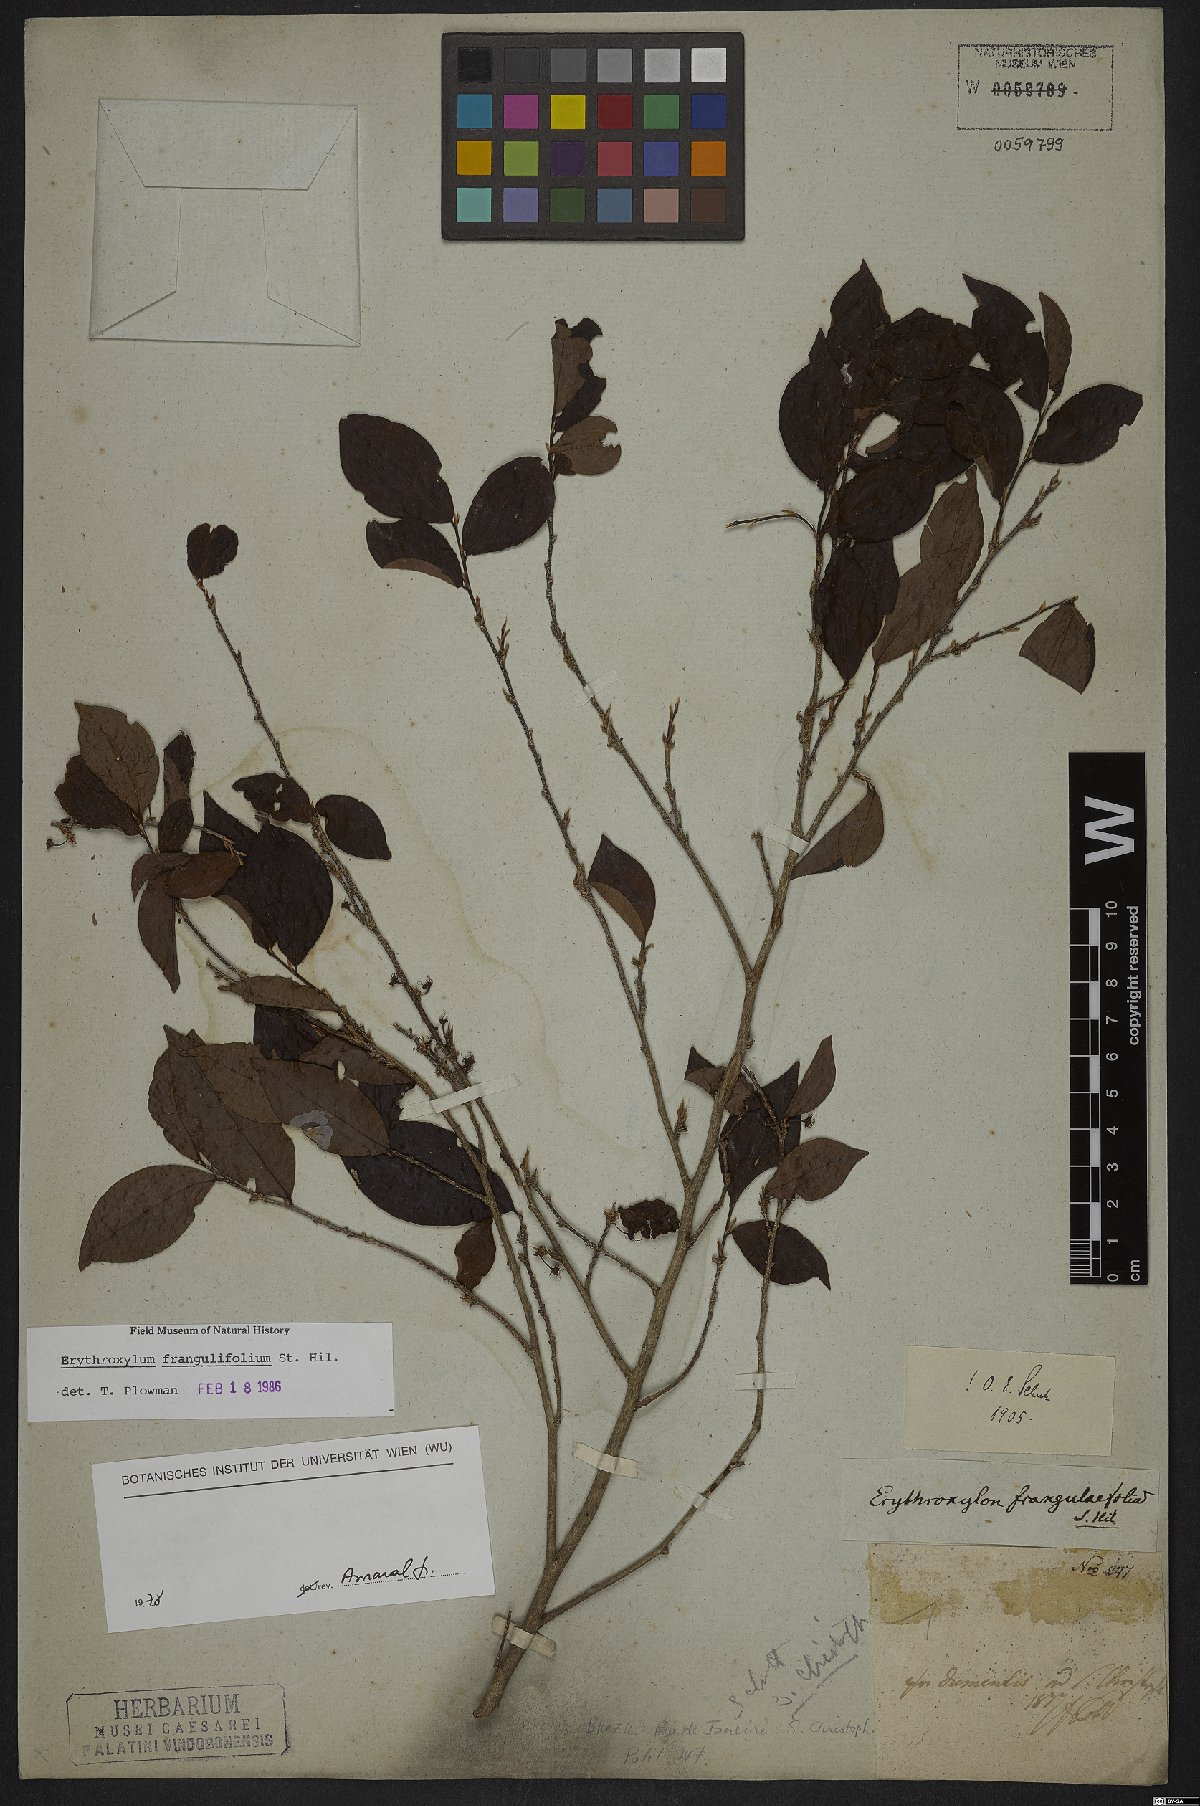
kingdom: Plantae
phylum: Tracheophyta
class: Magnoliopsida
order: Sapindales
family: Sapindaceae
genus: Sapindus
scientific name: Sapindus saponaria
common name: Wingleaf soapberry
